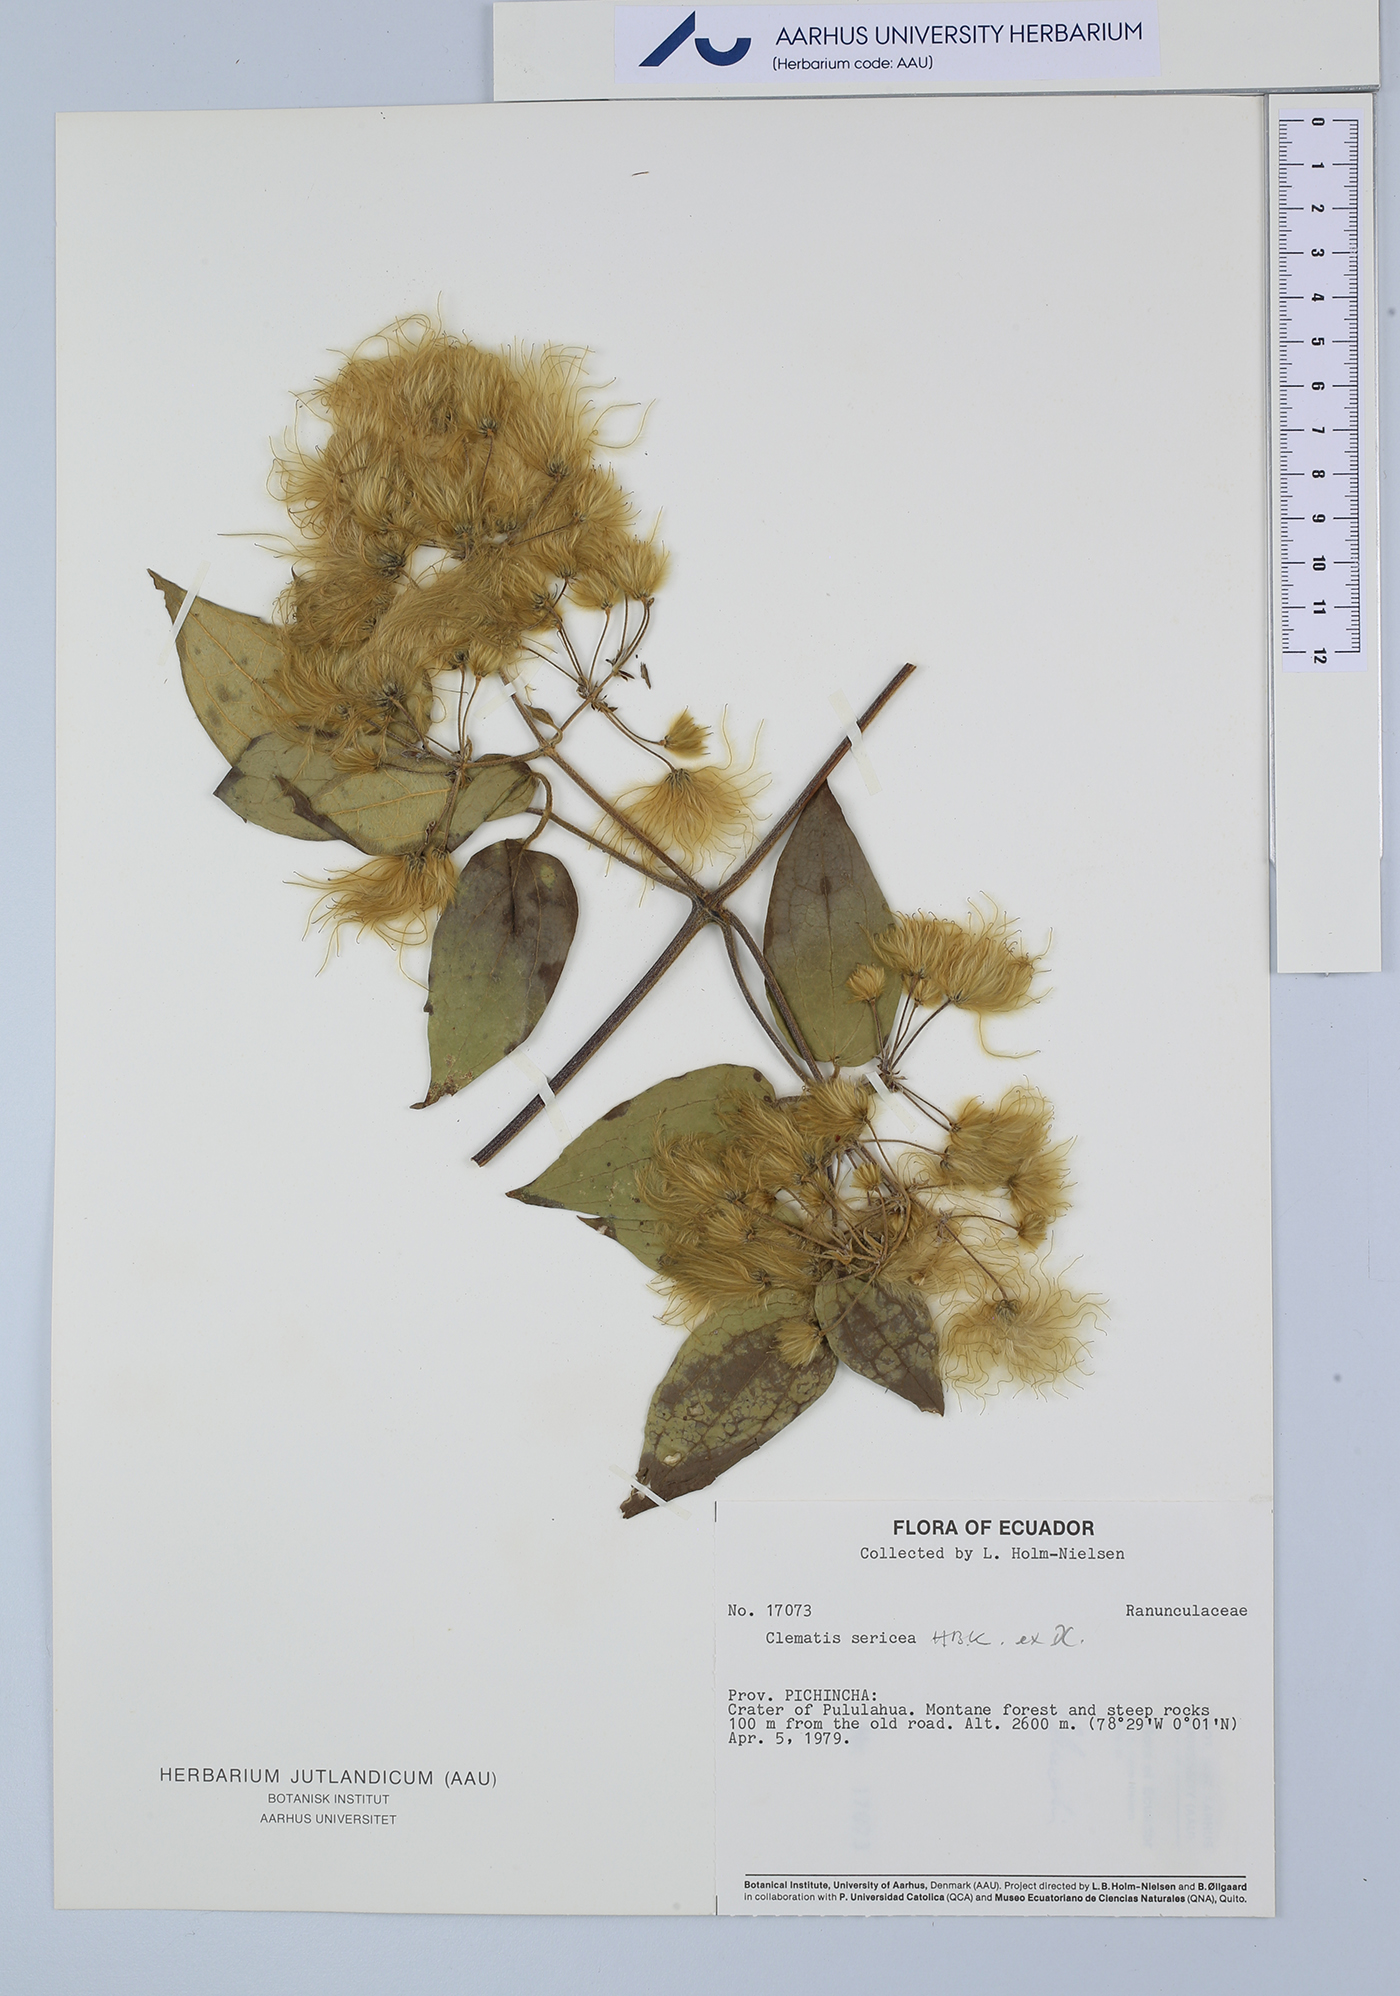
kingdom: Plantae
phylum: Tracheophyta
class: Magnoliopsida
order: Ranunculales
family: Ranunculaceae
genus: Clematis
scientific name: Clematis haenkeana
